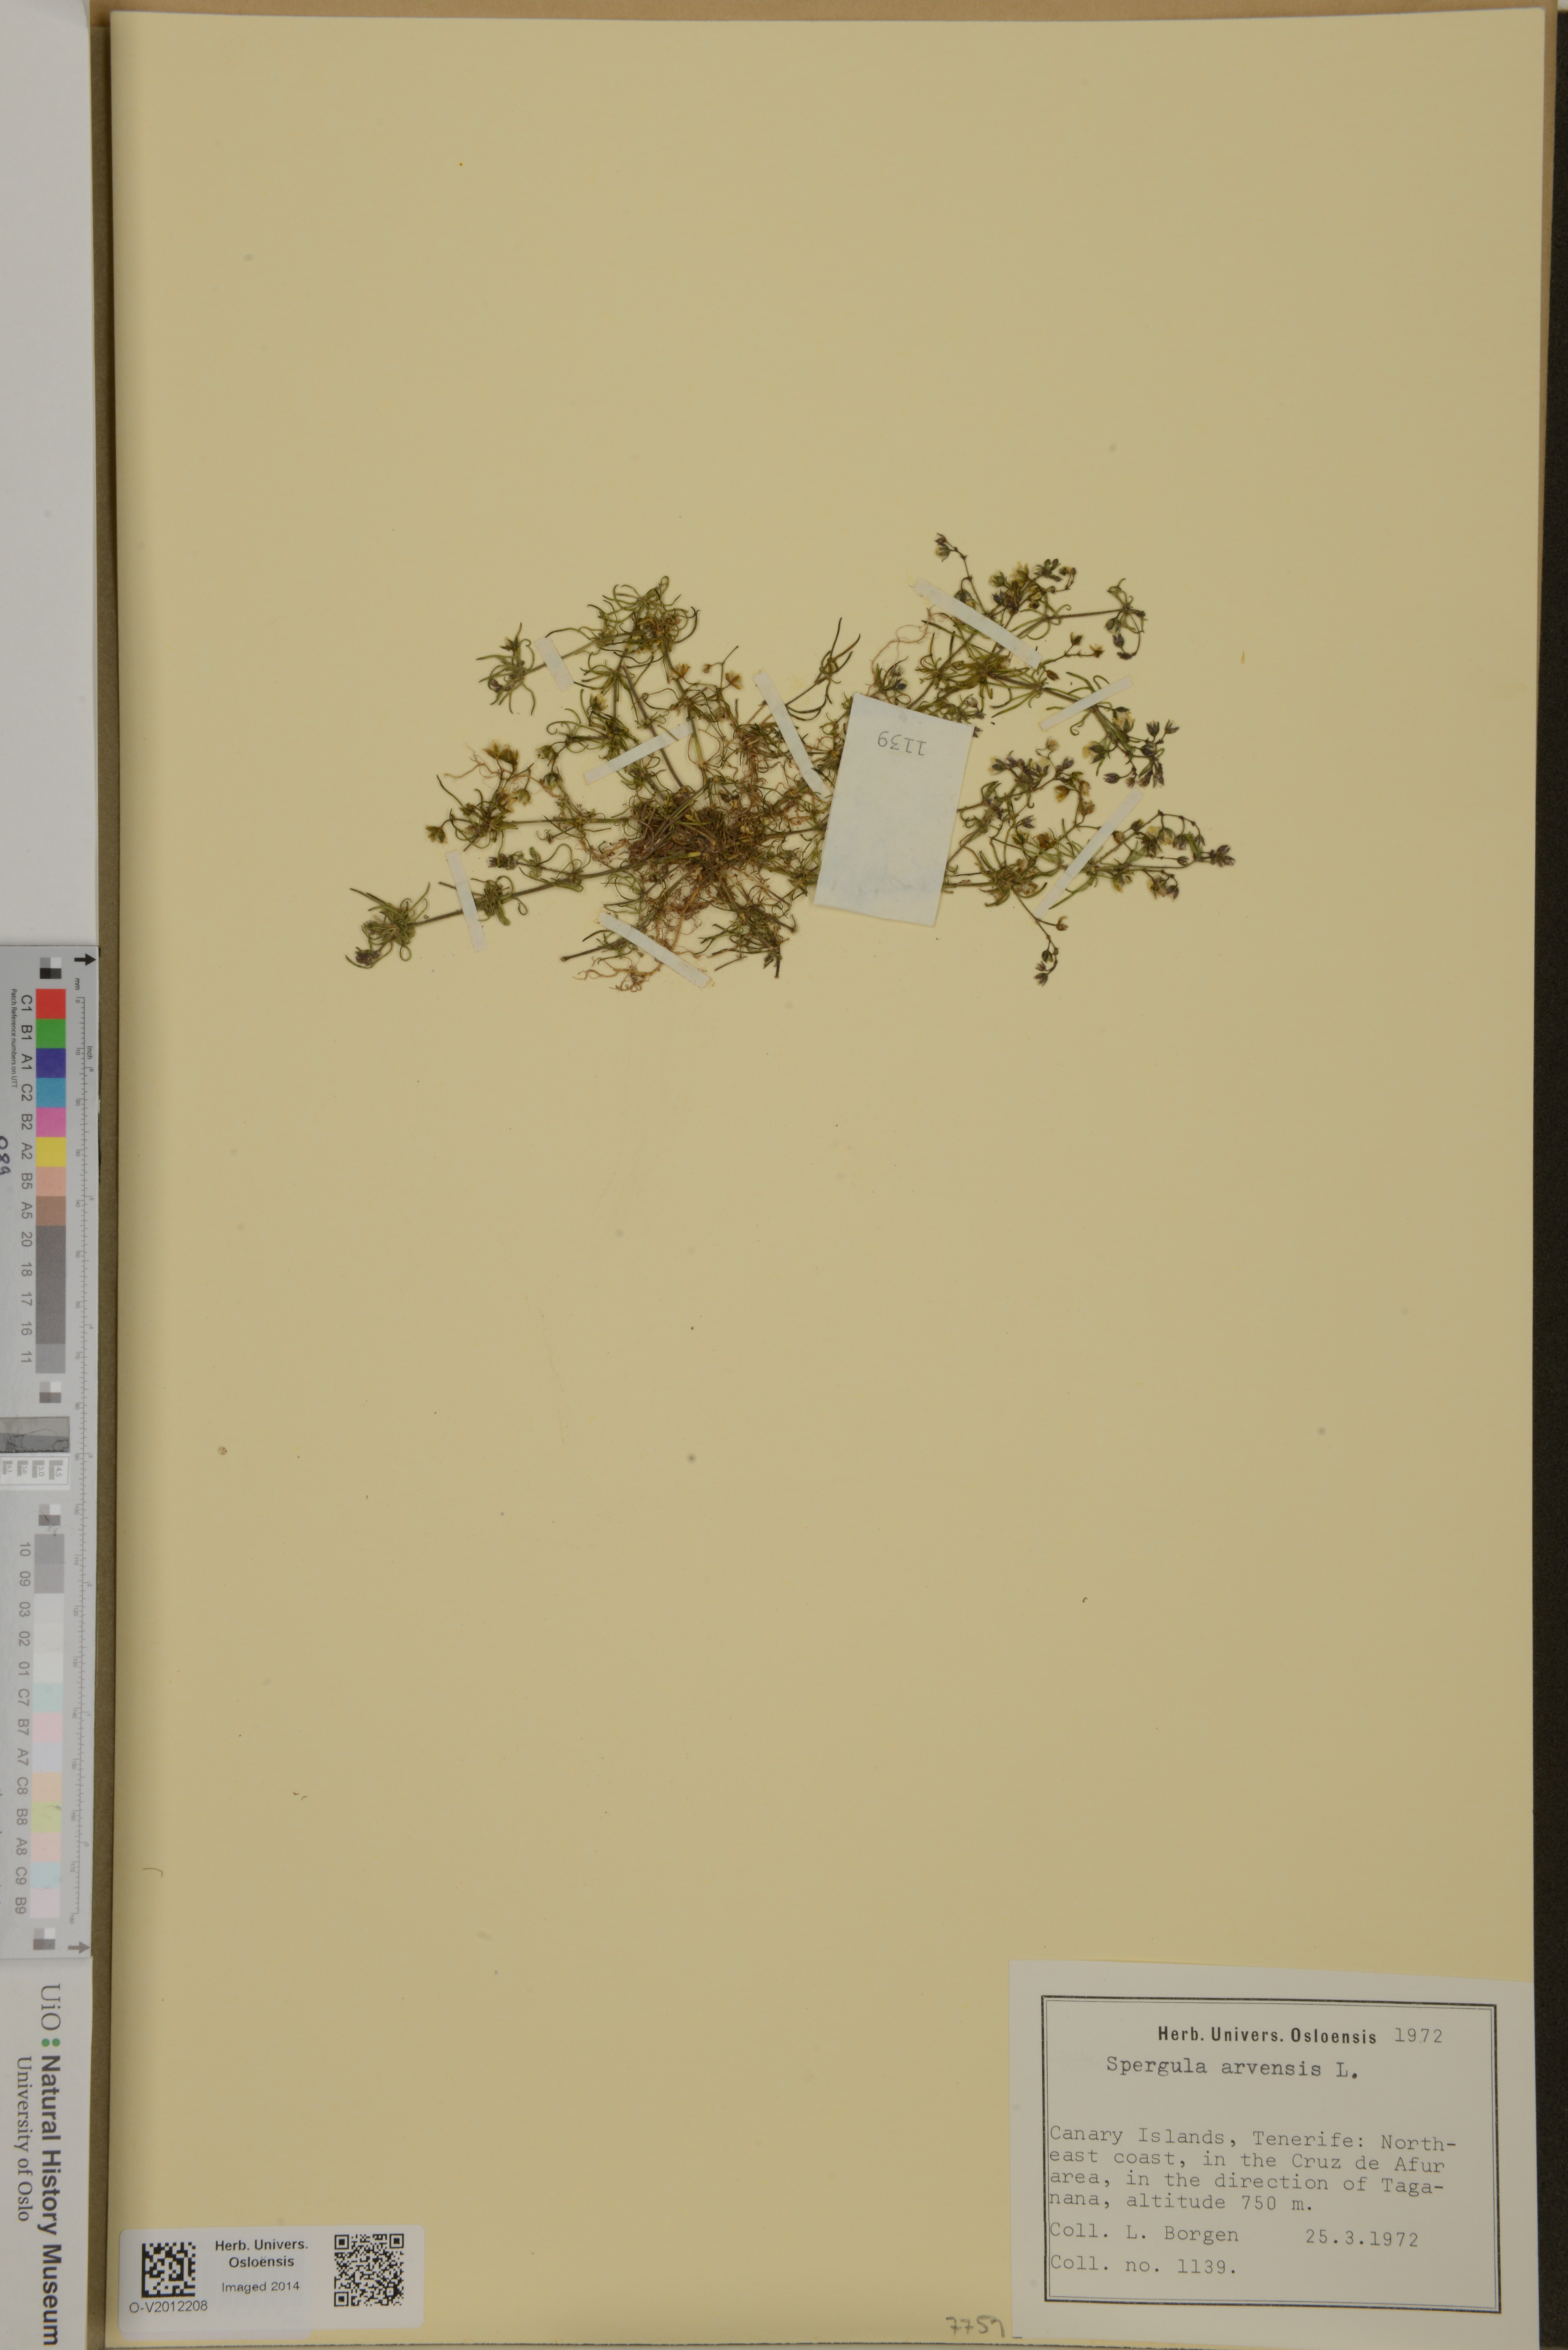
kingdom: Plantae
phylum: Tracheophyta
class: Magnoliopsida
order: Caryophyllales
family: Caryophyllaceae
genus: Spergula
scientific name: Spergula arvensis
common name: Corn spurrey
